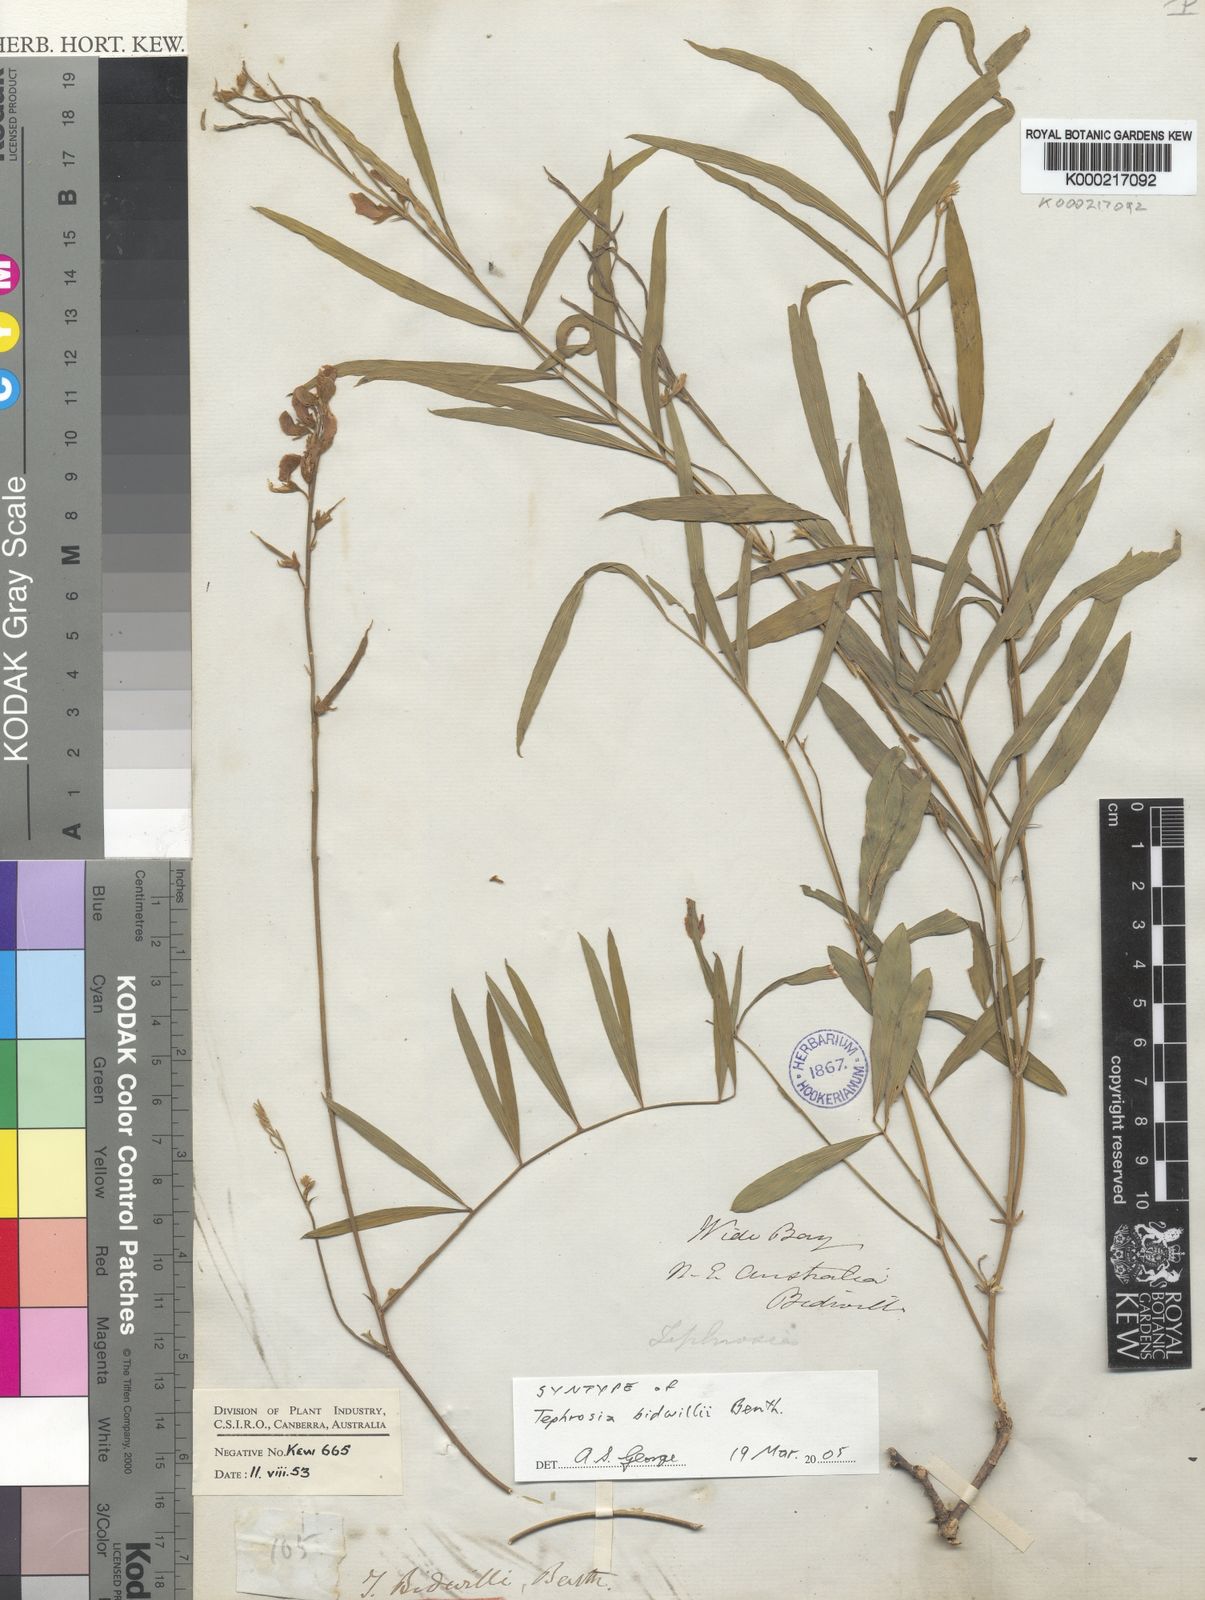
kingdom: Plantae
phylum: Tracheophyta
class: Magnoliopsida
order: Fabales
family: Fabaceae
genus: Tephrosia
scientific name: Tephrosia bidwillii
